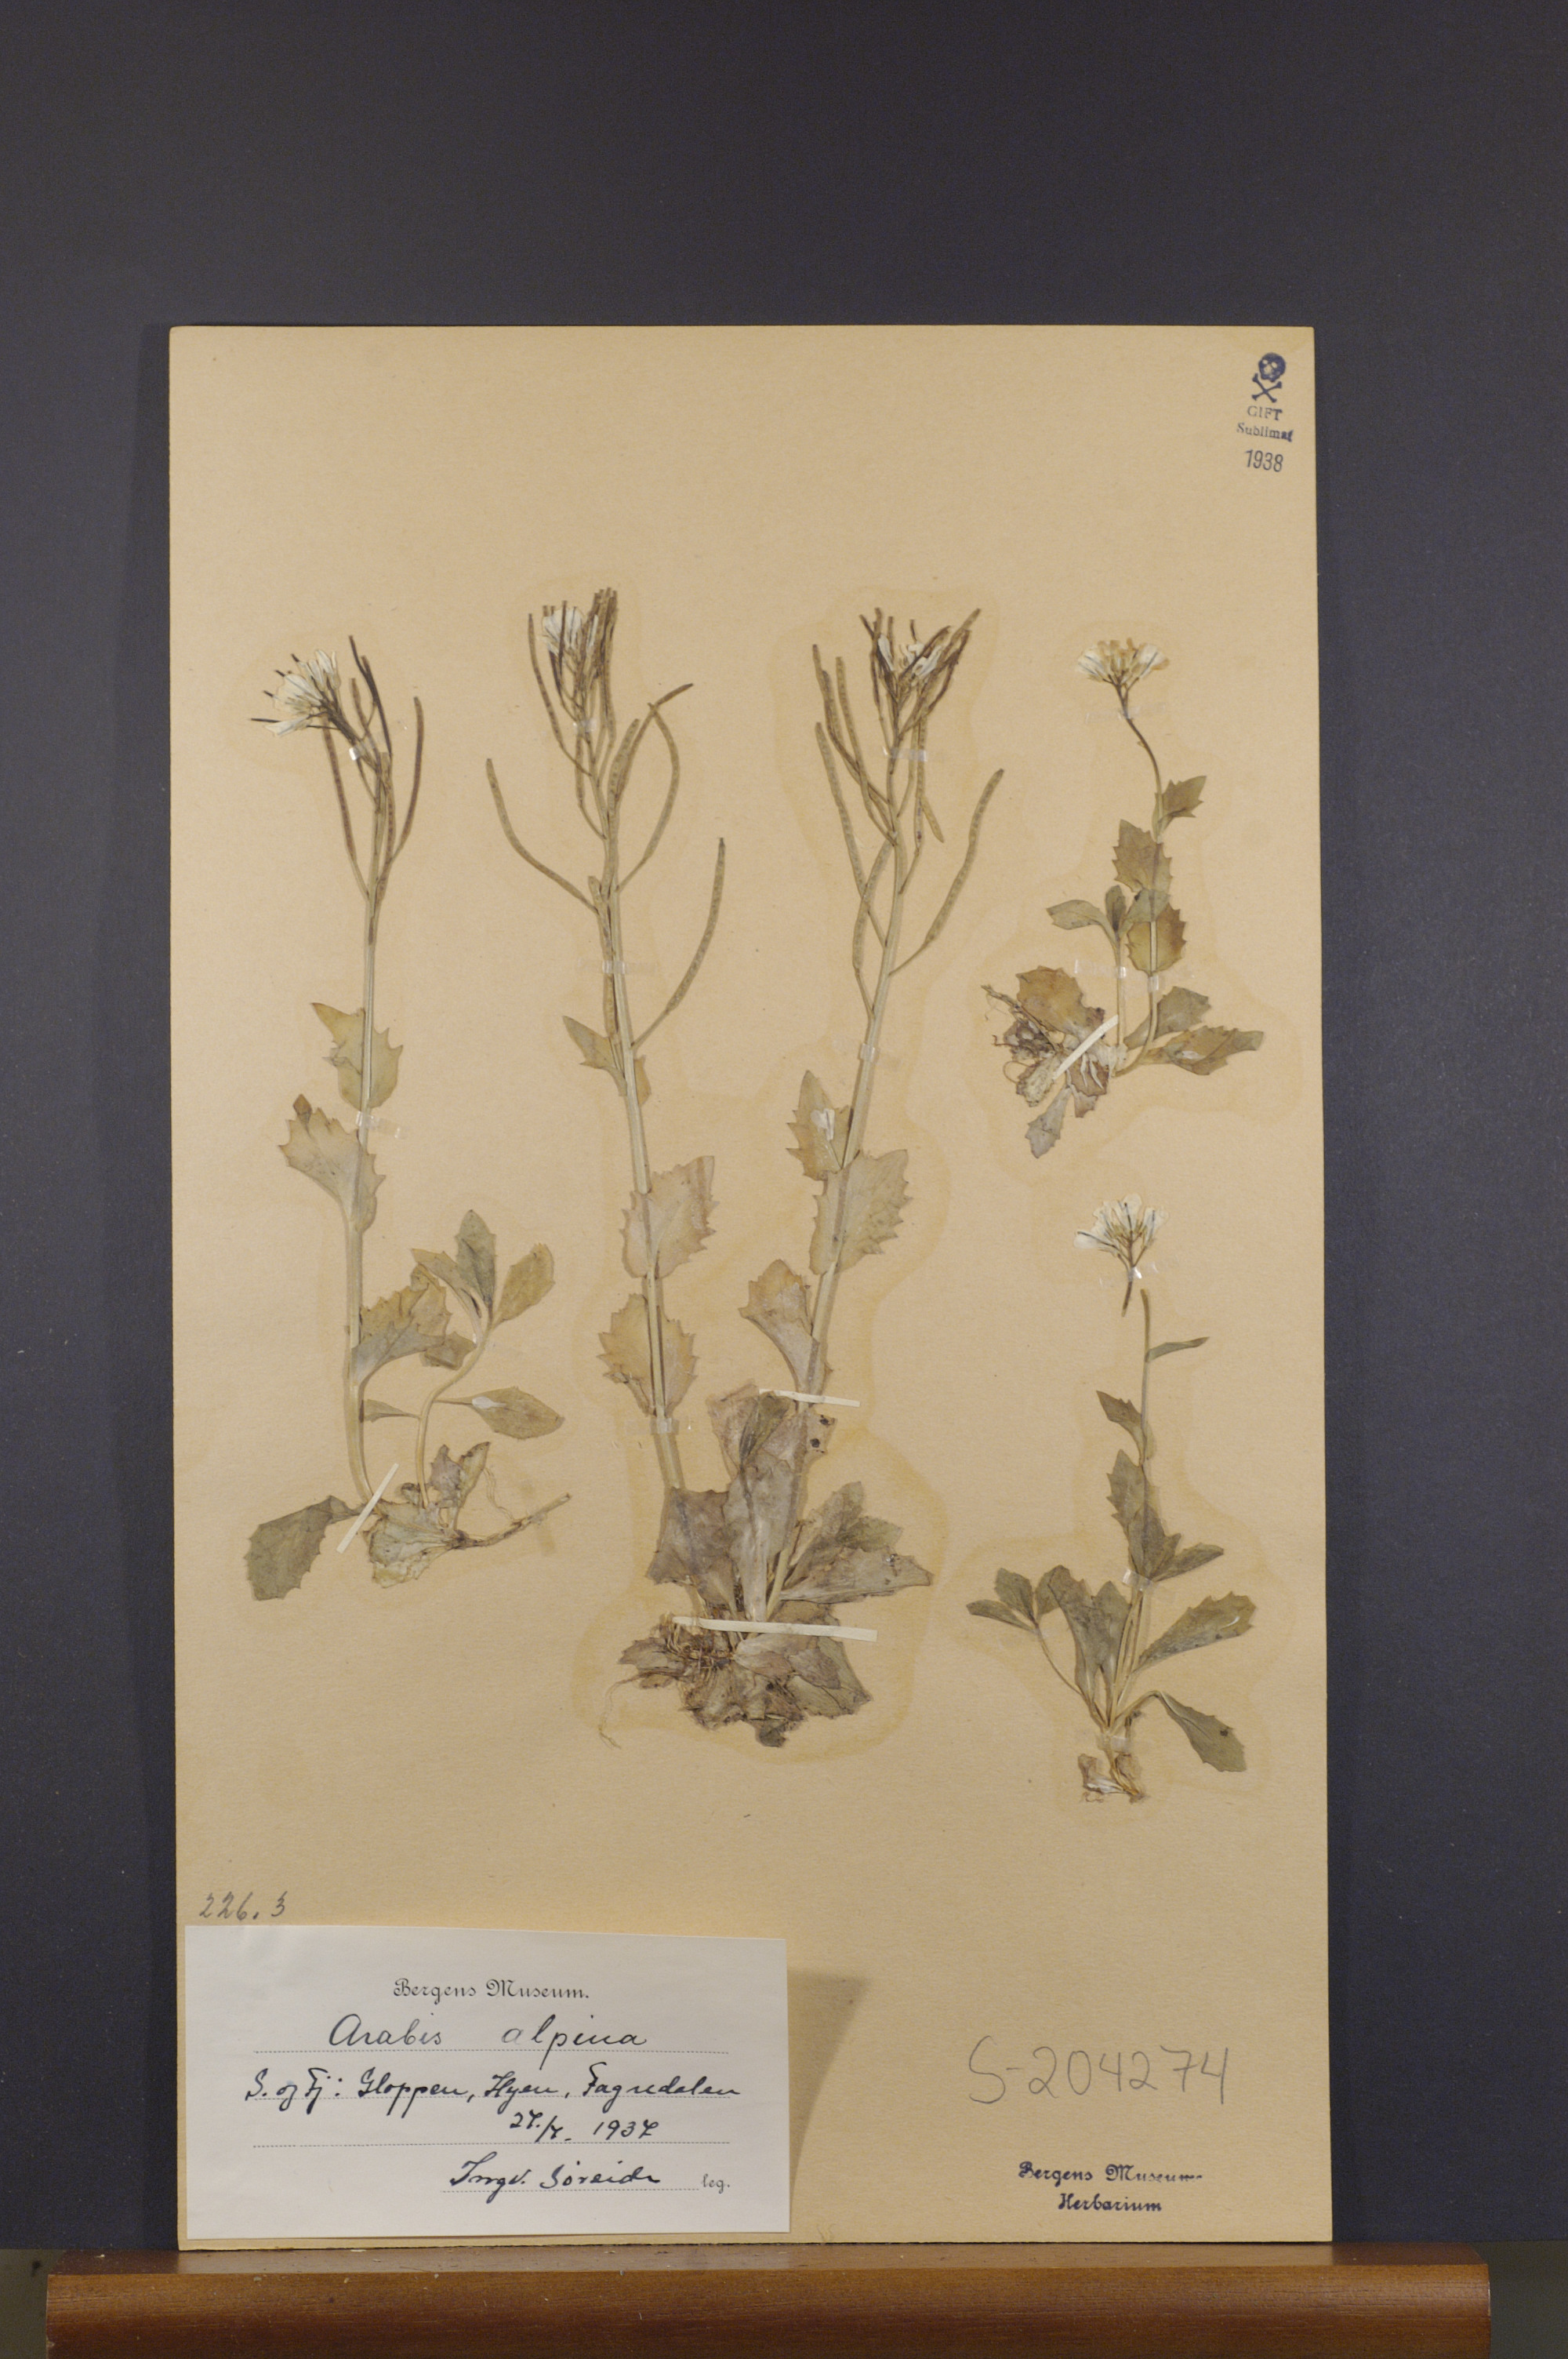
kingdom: Plantae
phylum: Tracheophyta
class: Magnoliopsida
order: Brassicales
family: Brassicaceae
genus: Arabis
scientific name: Arabis alpina
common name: Alpine rock-cress
